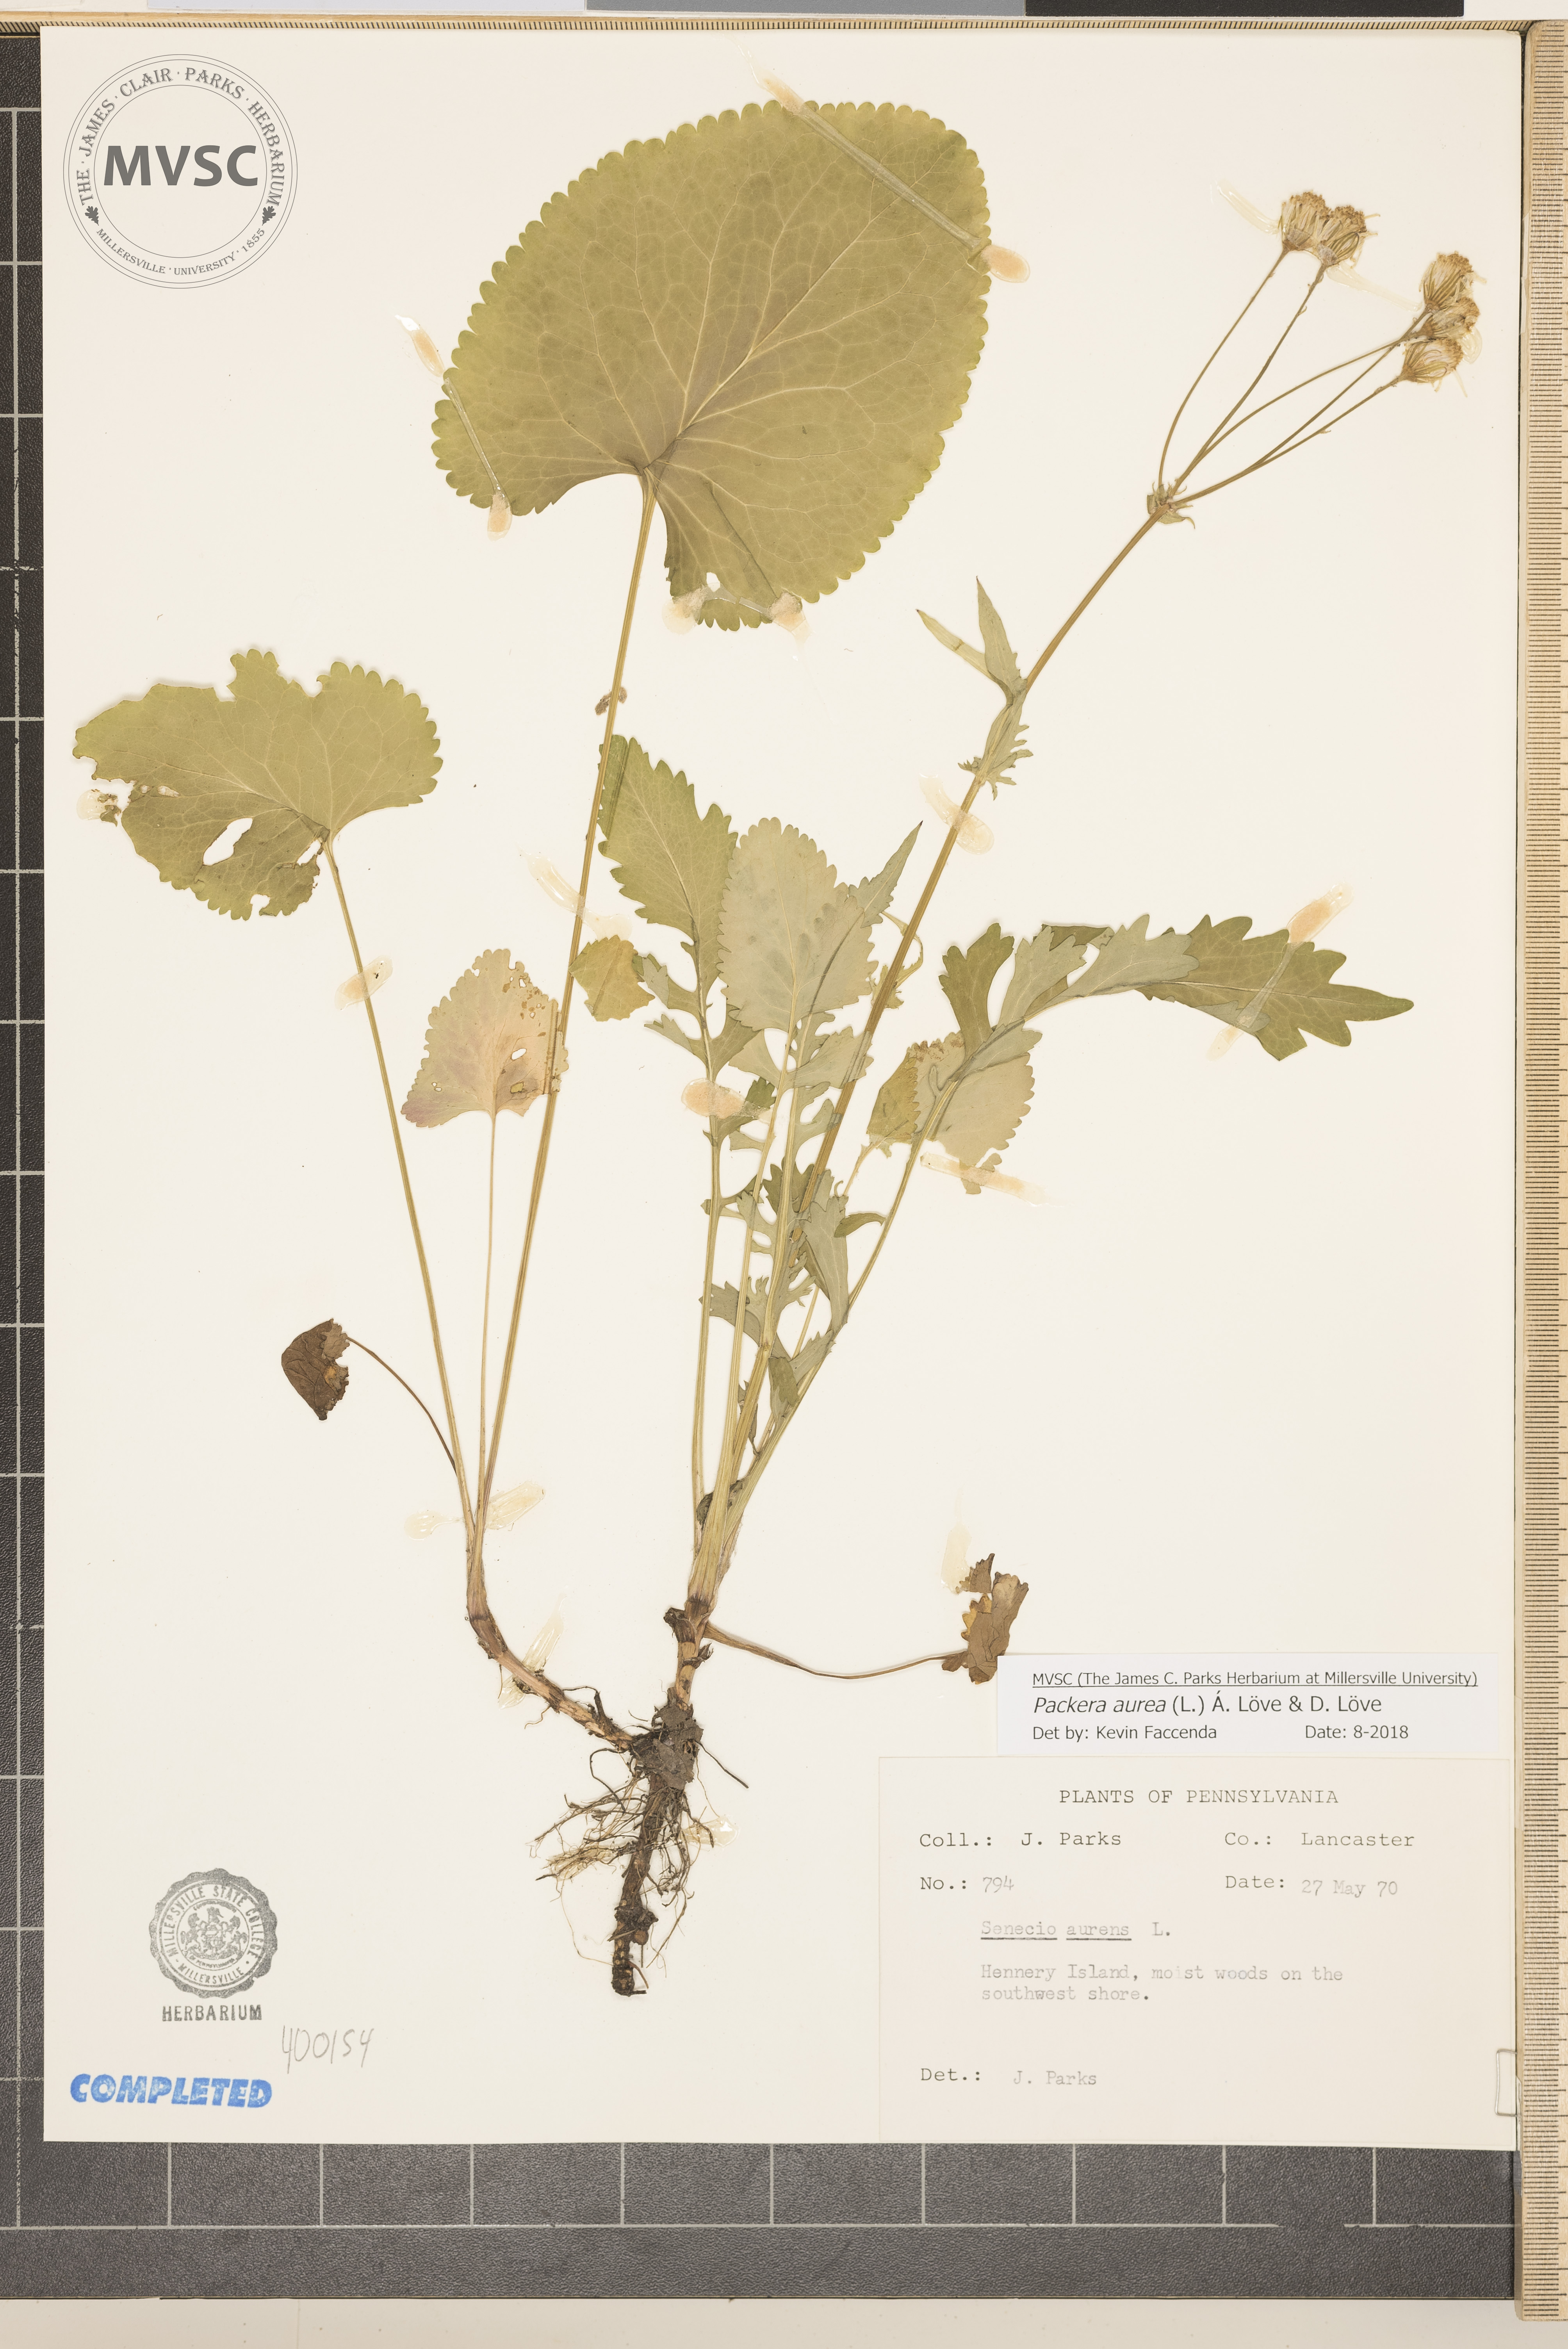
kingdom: Plantae
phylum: Tracheophyta
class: Magnoliopsida
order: Asterales
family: Asteraceae
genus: Packera
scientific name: Packera aurea
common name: Golden groundsel
